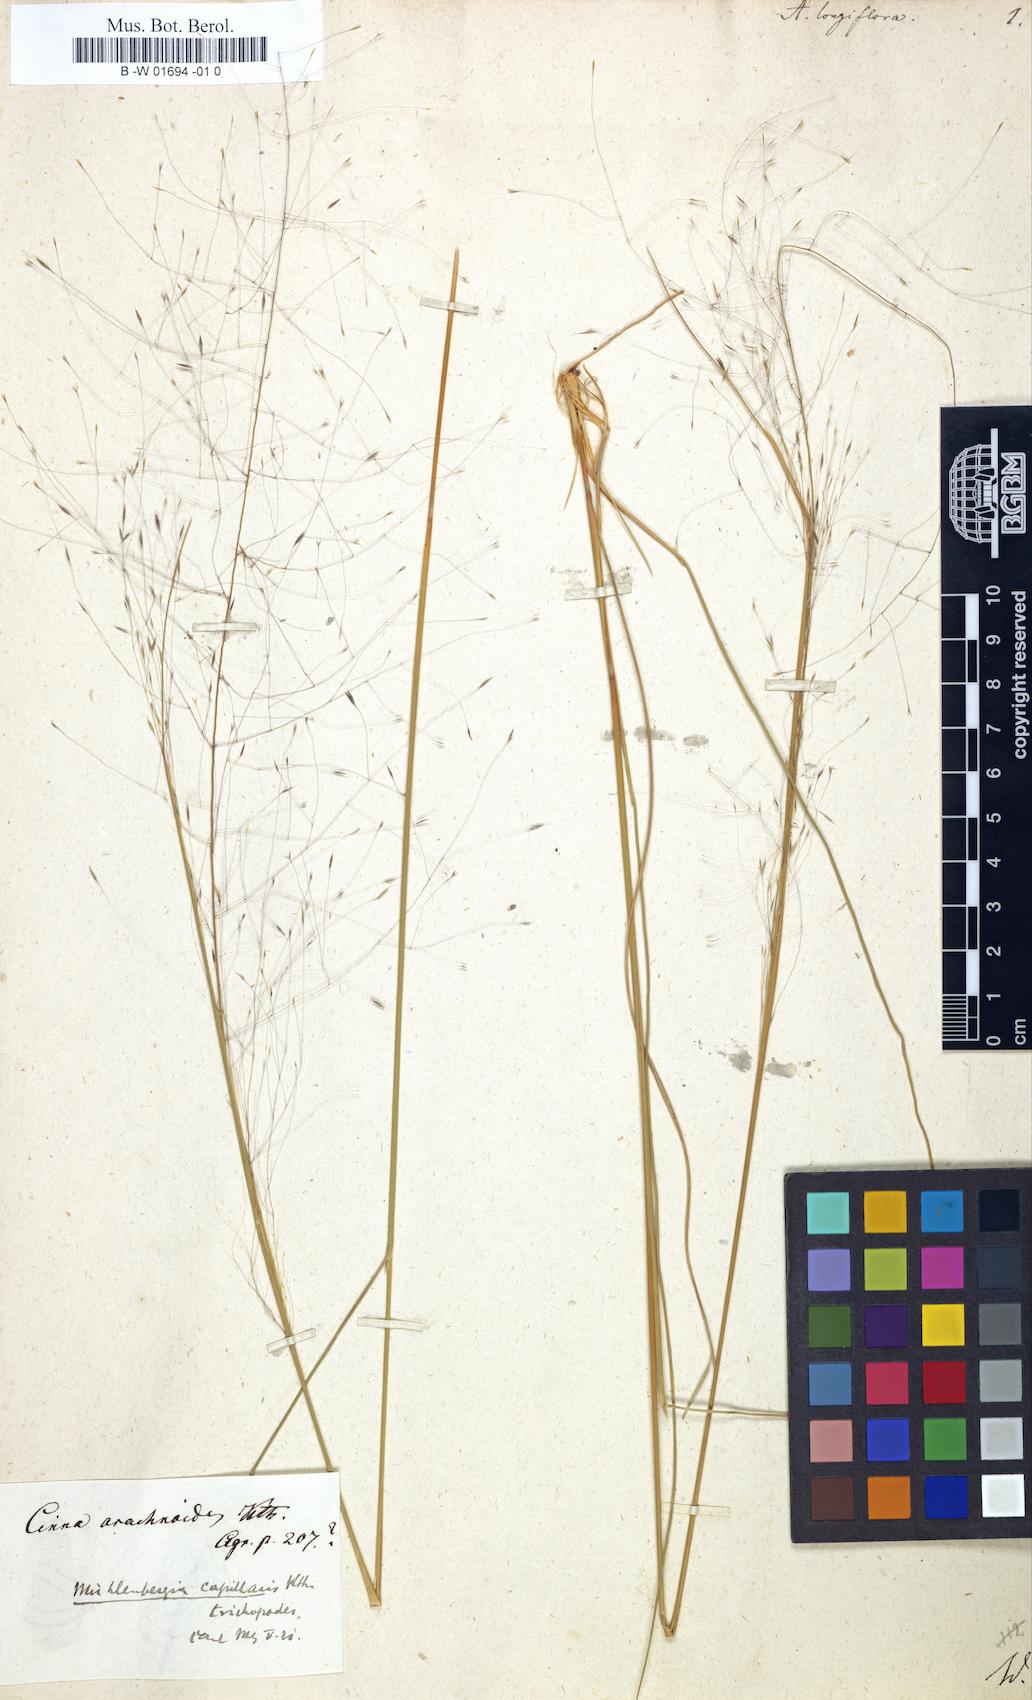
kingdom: Plantae
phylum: Tracheophyta
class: Liliopsida
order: Poales
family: Poaceae
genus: Muhlenbergia
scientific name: Muhlenbergia expansa
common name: Savannah hairgrass
